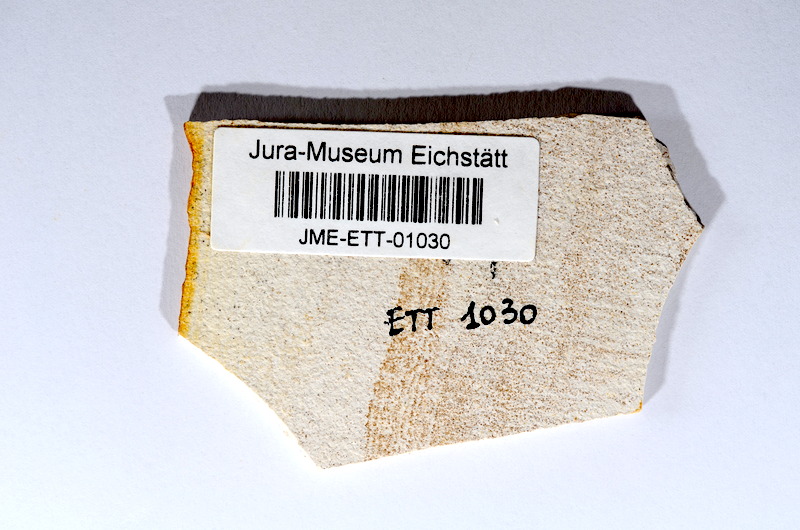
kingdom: Animalia
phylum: Chordata
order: Salmoniformes
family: Orthogonikleithridae
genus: Orthogonikleithrus
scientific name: Orthogonikleithrus hoelli
